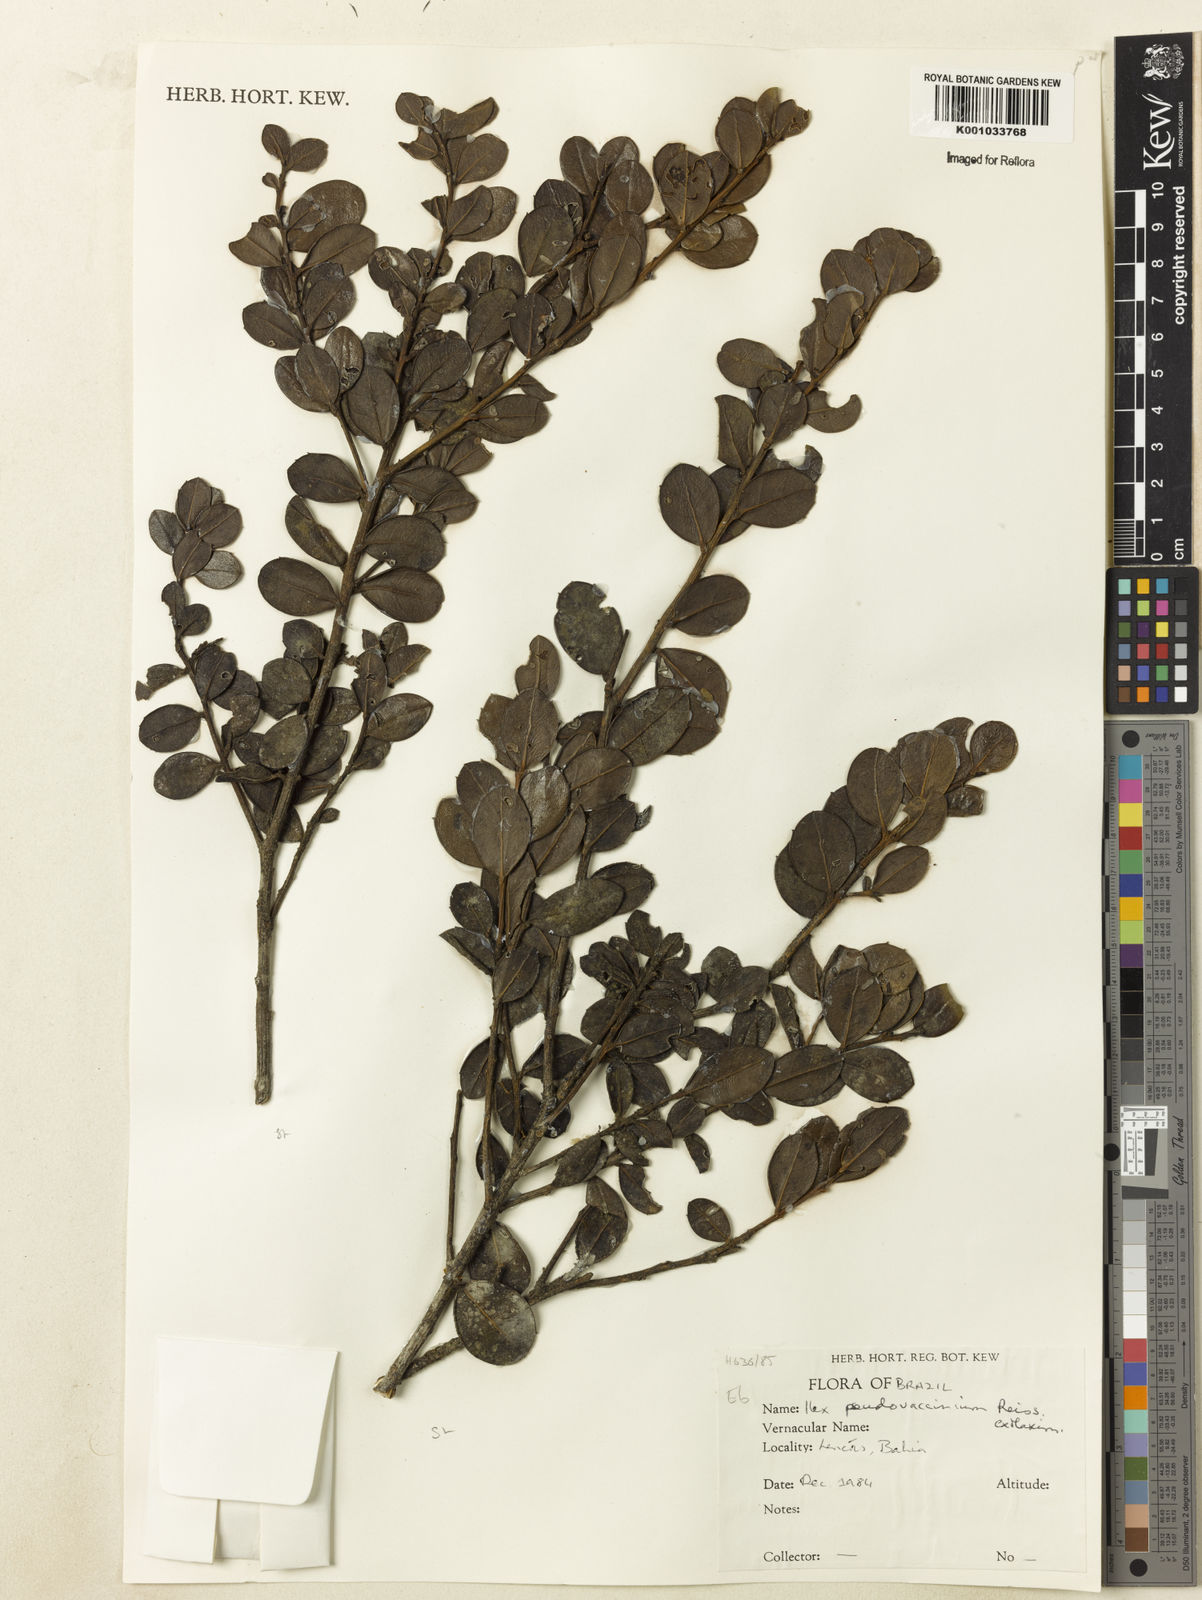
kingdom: Plantae
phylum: Tracheophyta
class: Magnoliopsida
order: Aquifoliales
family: Aquifoliaceae
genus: Ilex
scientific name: Ilex pseudovaccinium
